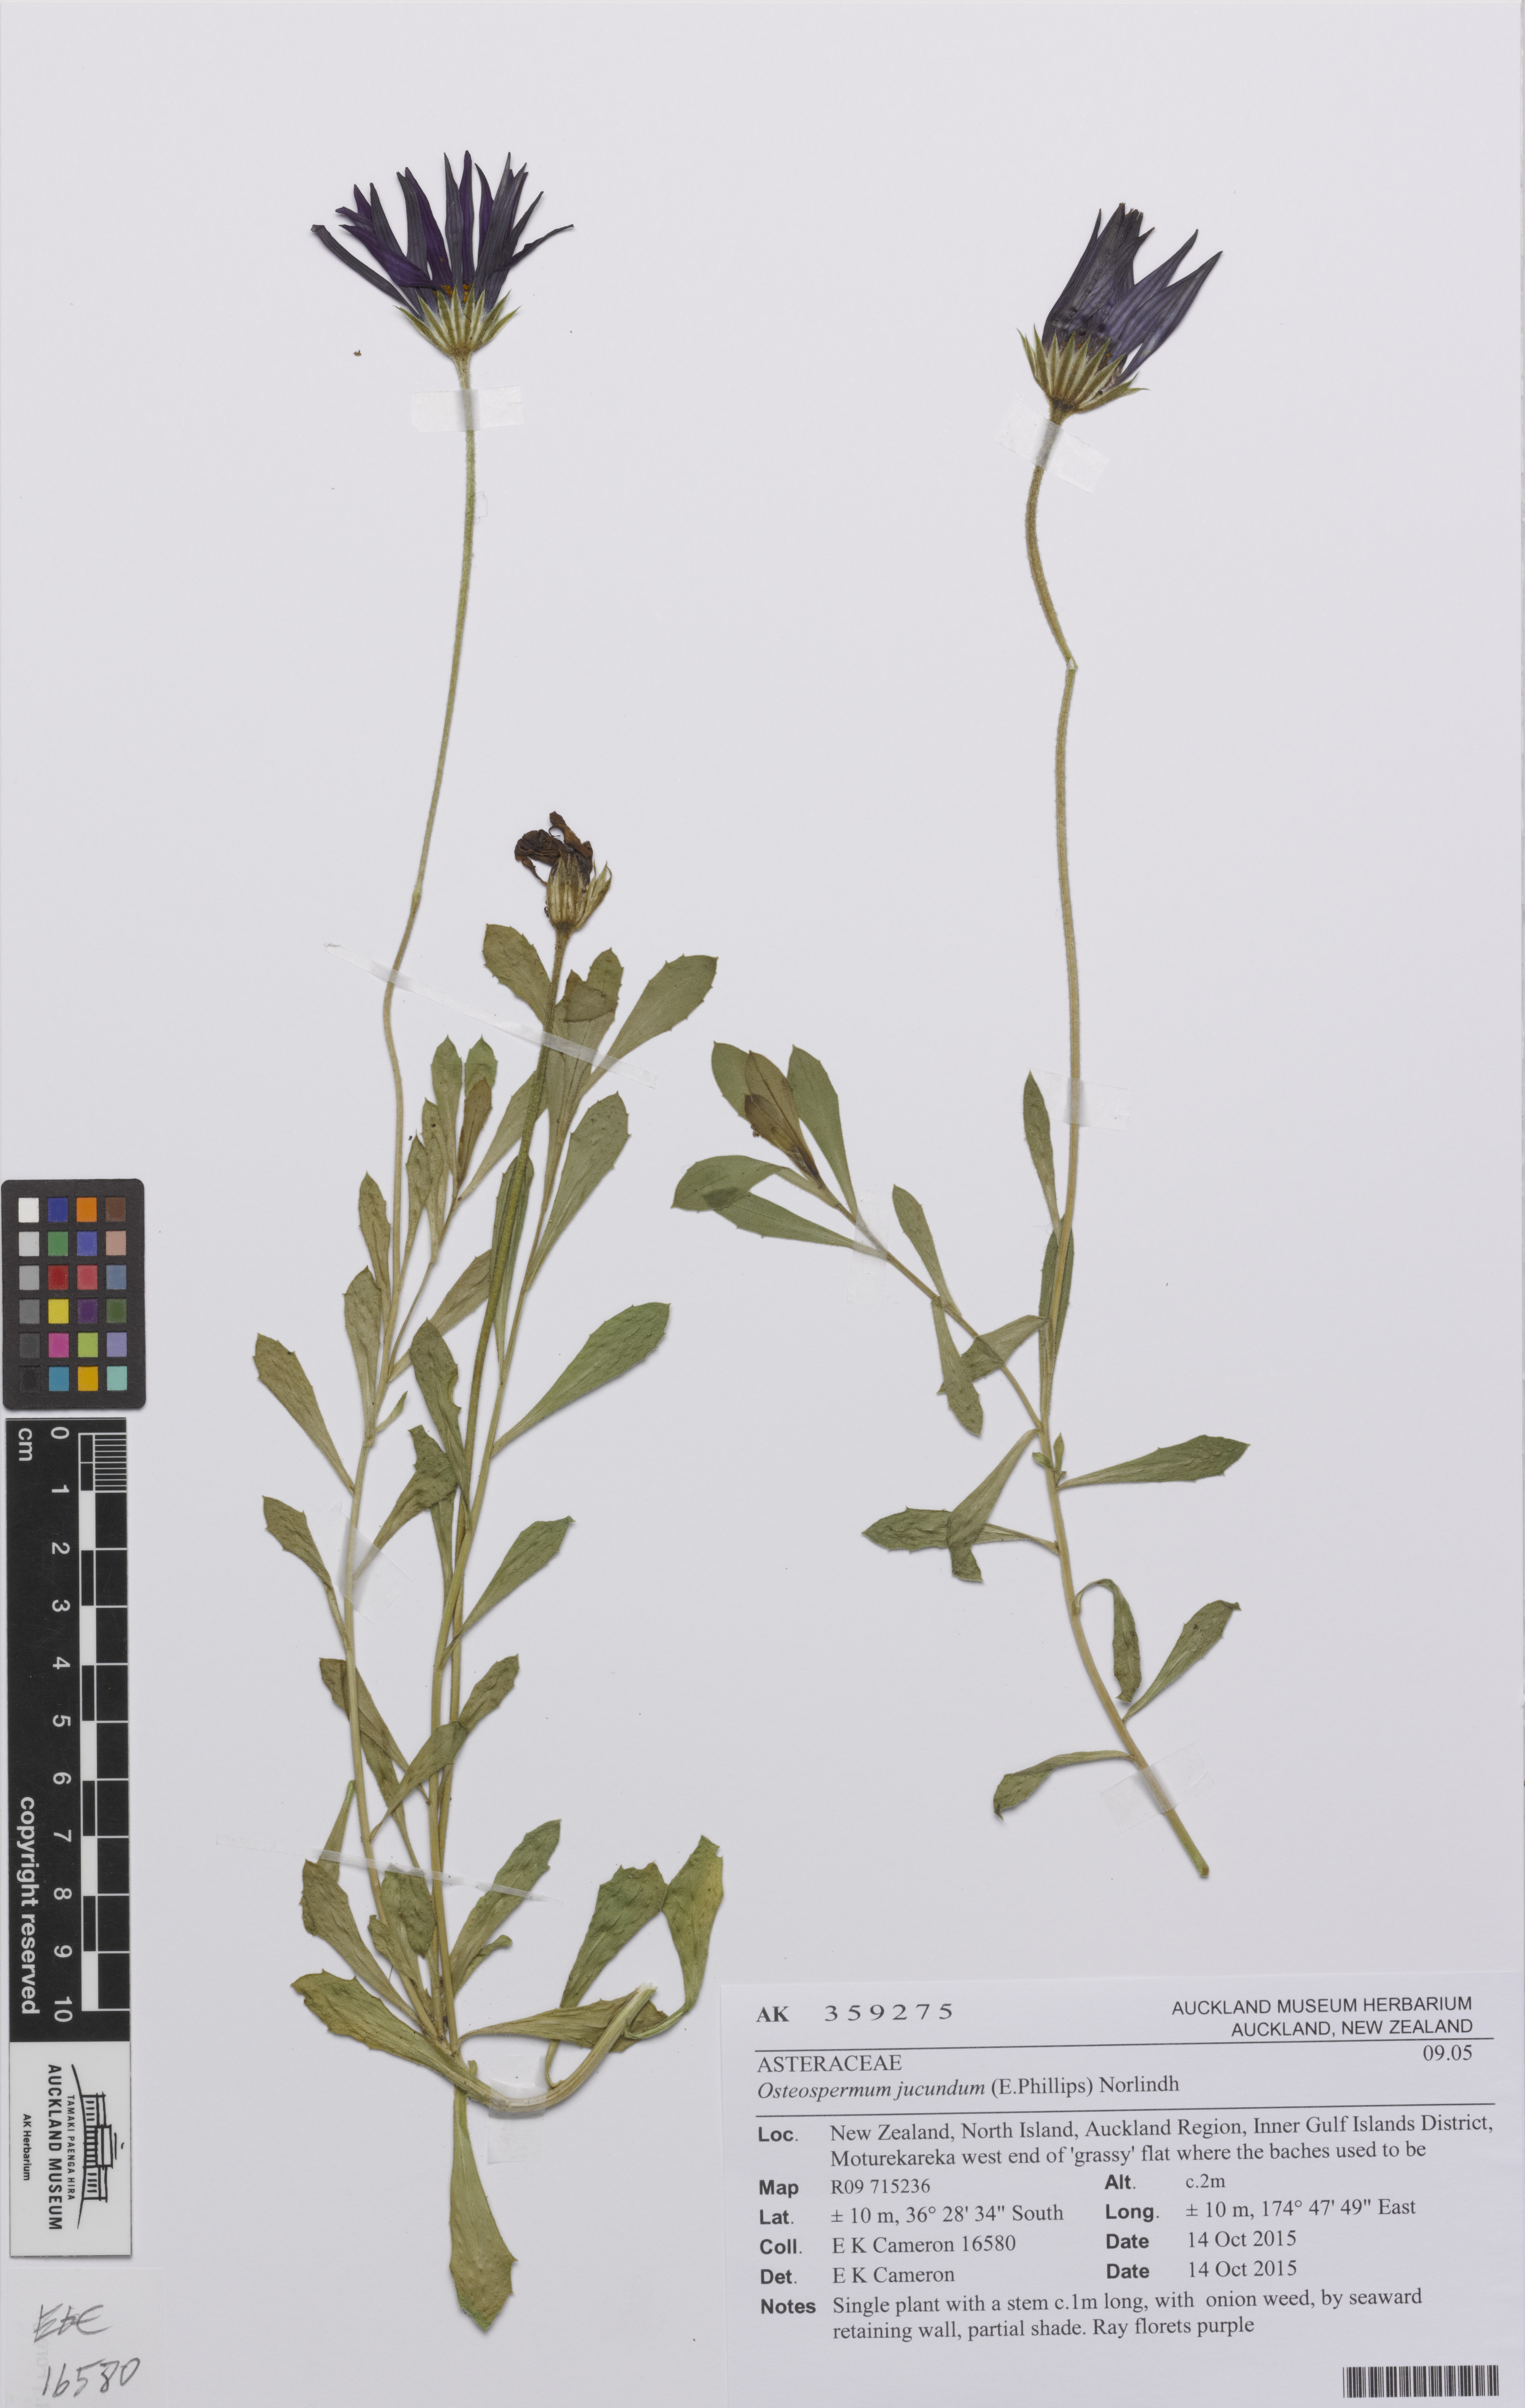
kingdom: Plantae
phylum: Tracheophyta
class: Magnoliopsida
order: Asterales
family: Asteraceae
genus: Dimorphotheca
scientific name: Dimorphotheca jucunda
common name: Osteospermum
